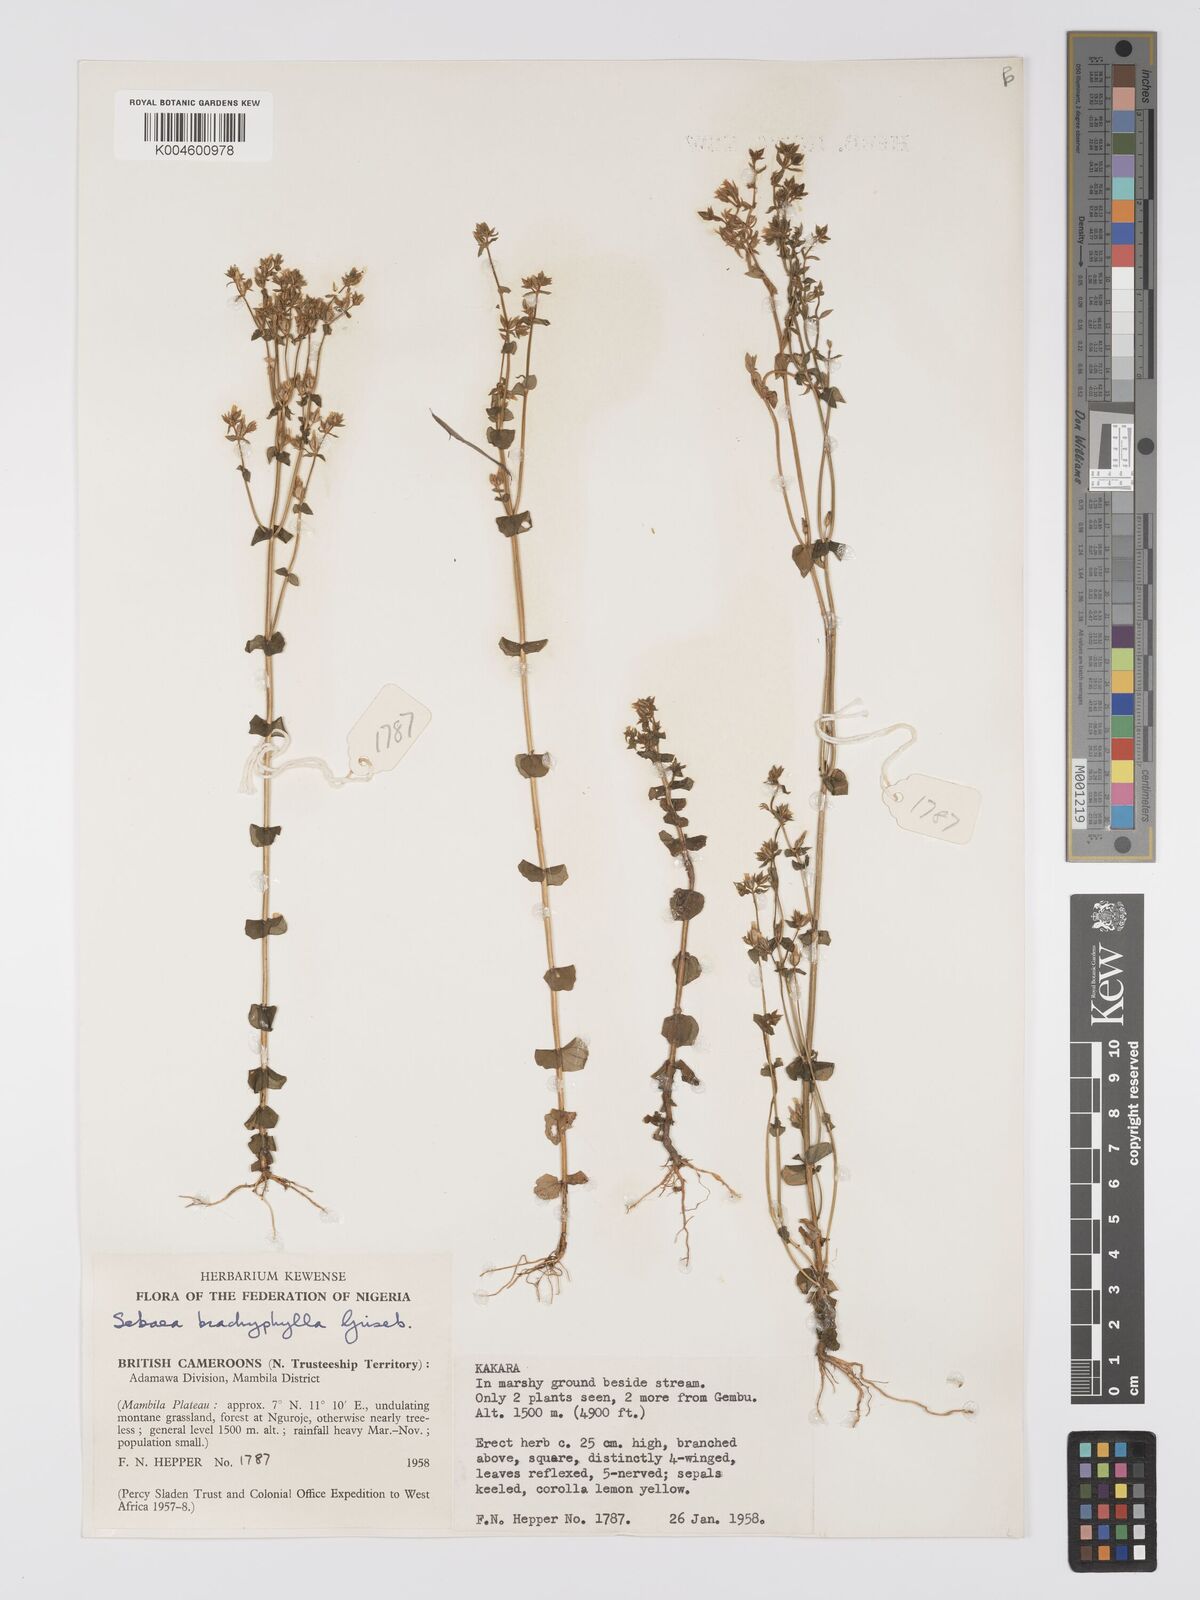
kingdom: Plantae
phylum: Tracheophyta
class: Magnoliopsida
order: Gentianales
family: Gentianaceae
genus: Sebaea
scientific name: Sebaea brachyphylla
